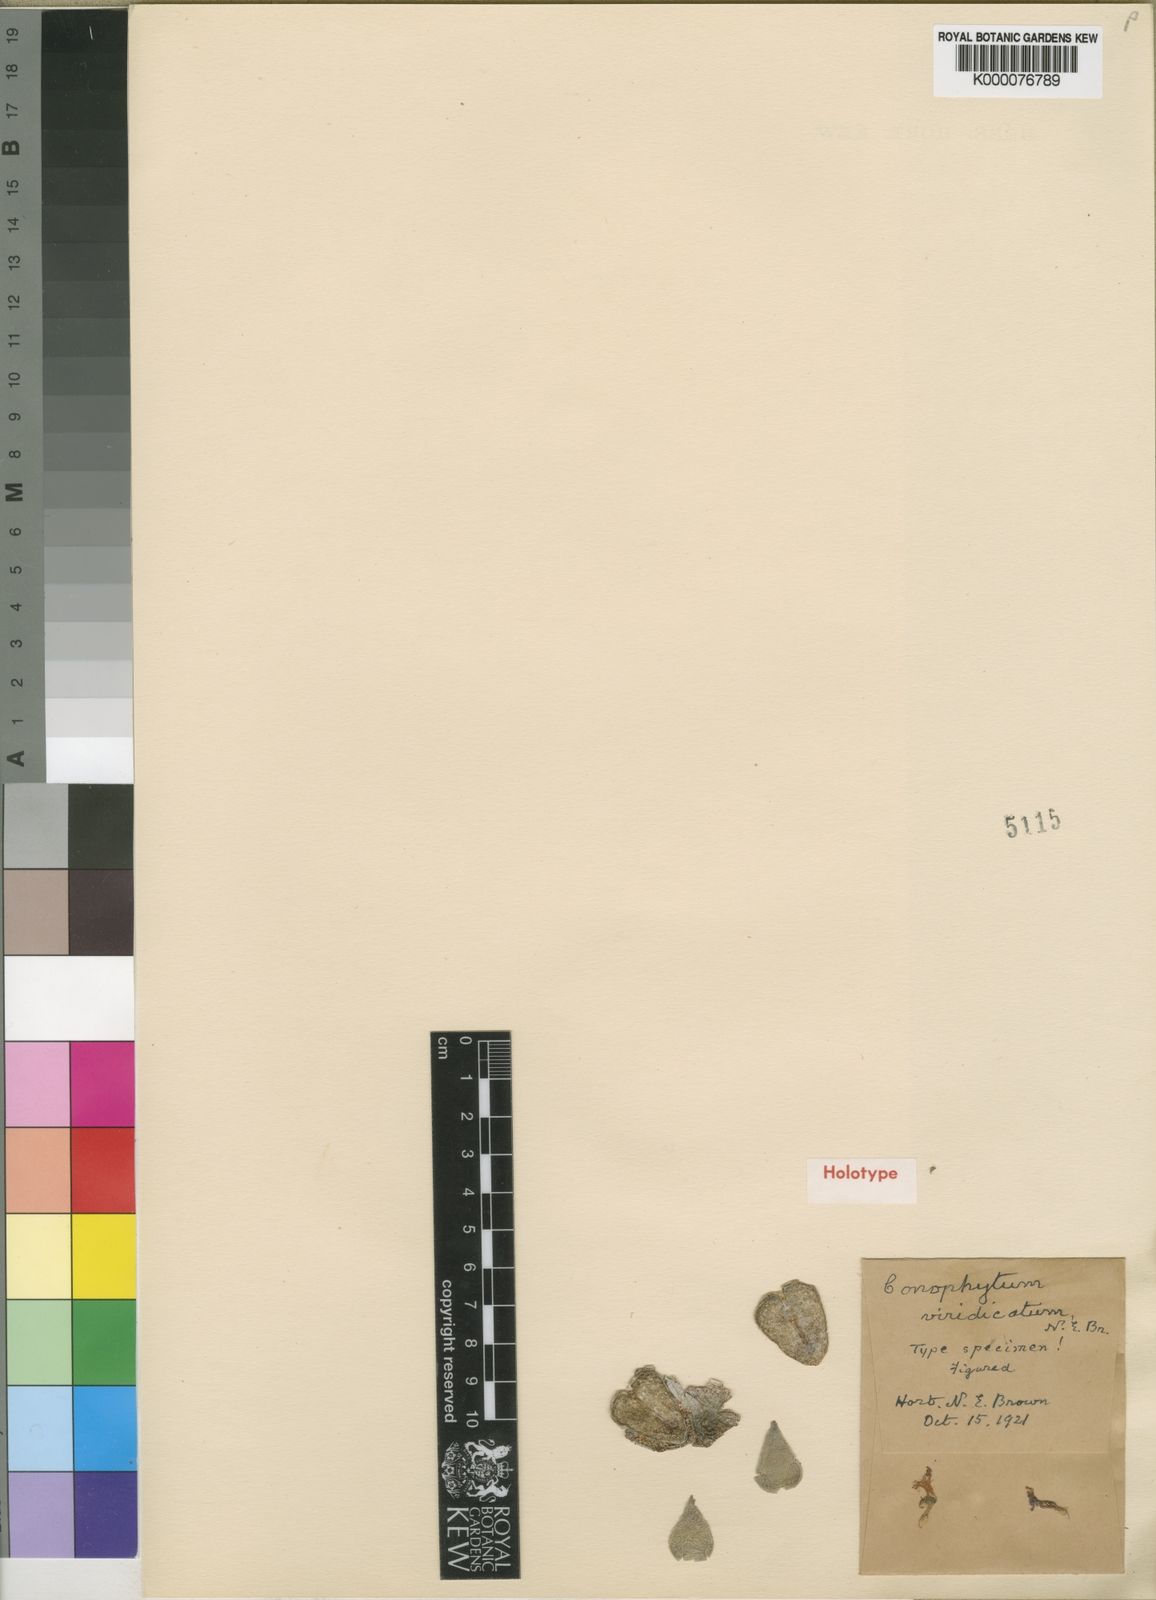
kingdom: Plantae
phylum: Tracheophyta
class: Magnoliopsida
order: Caryophyllales
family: Aizoaceae
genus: Conophytum
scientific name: Conophytum truncatum
